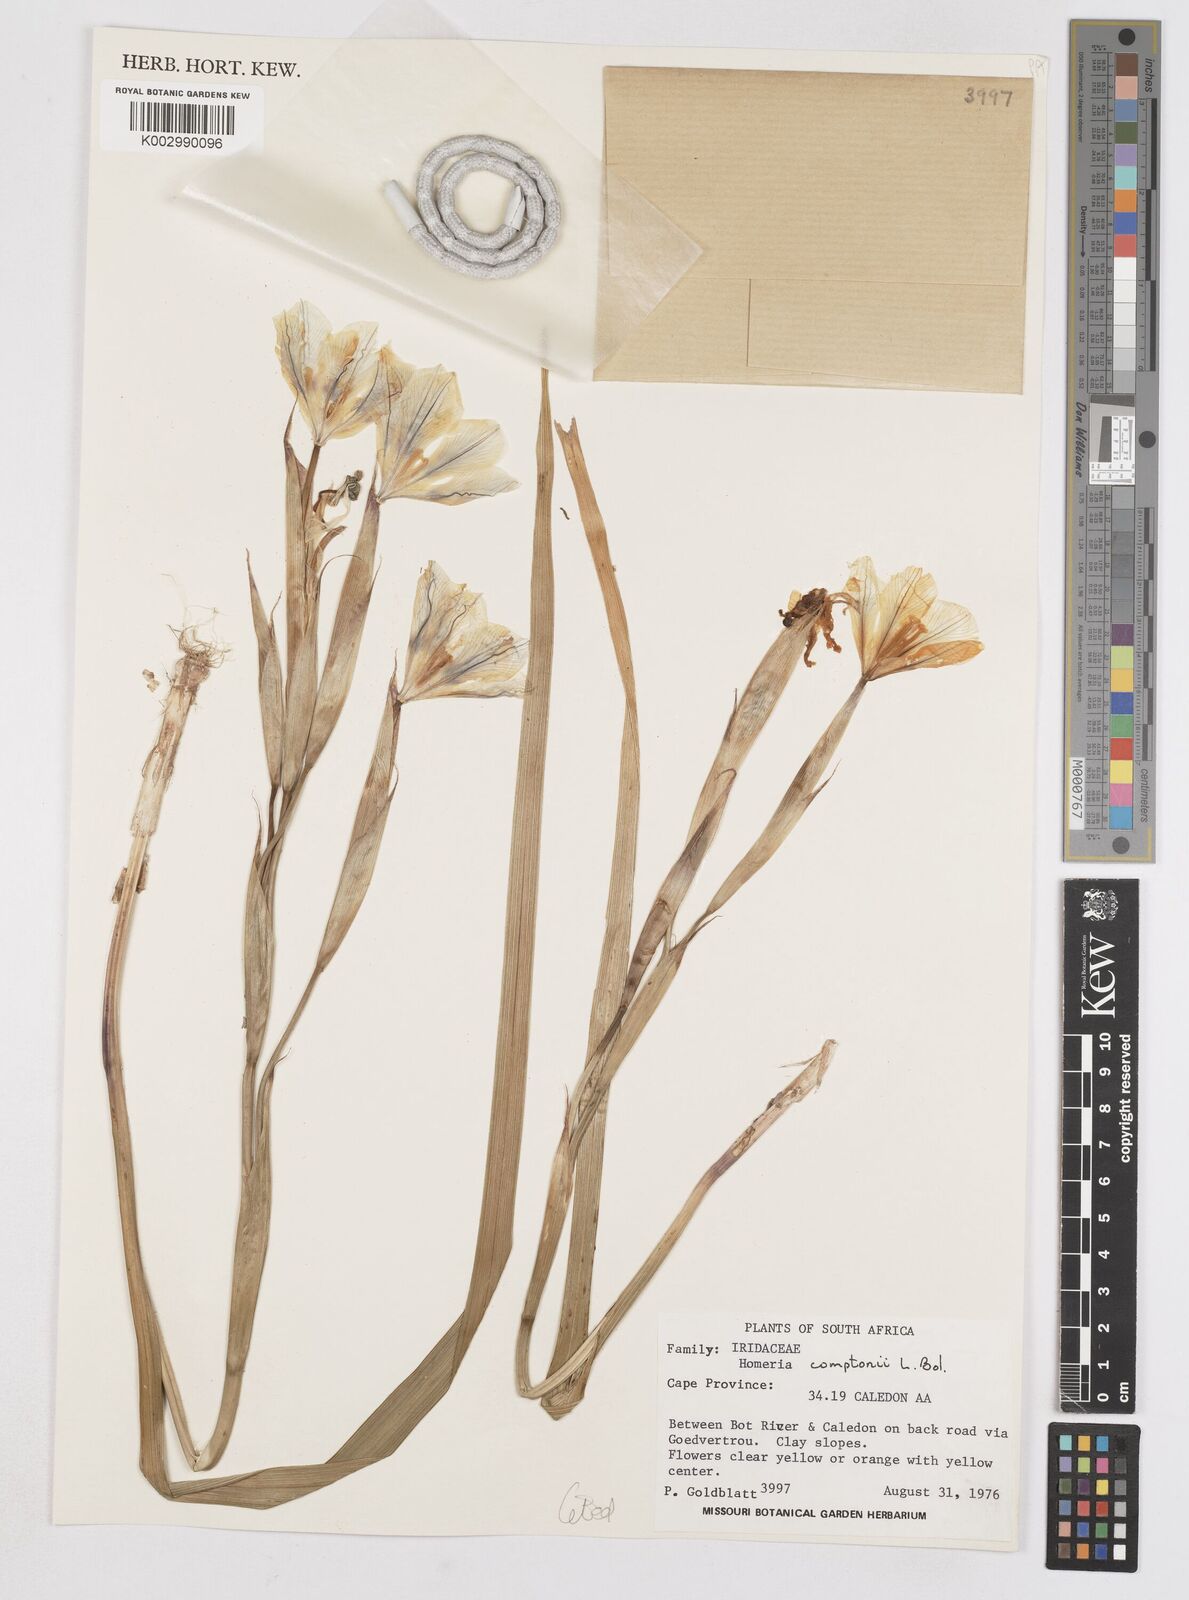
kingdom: Plantae
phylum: Tracheophyta
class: Liliopsida
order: Asparagales
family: Iridaceae
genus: Moraea
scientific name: Moraea comptonii
